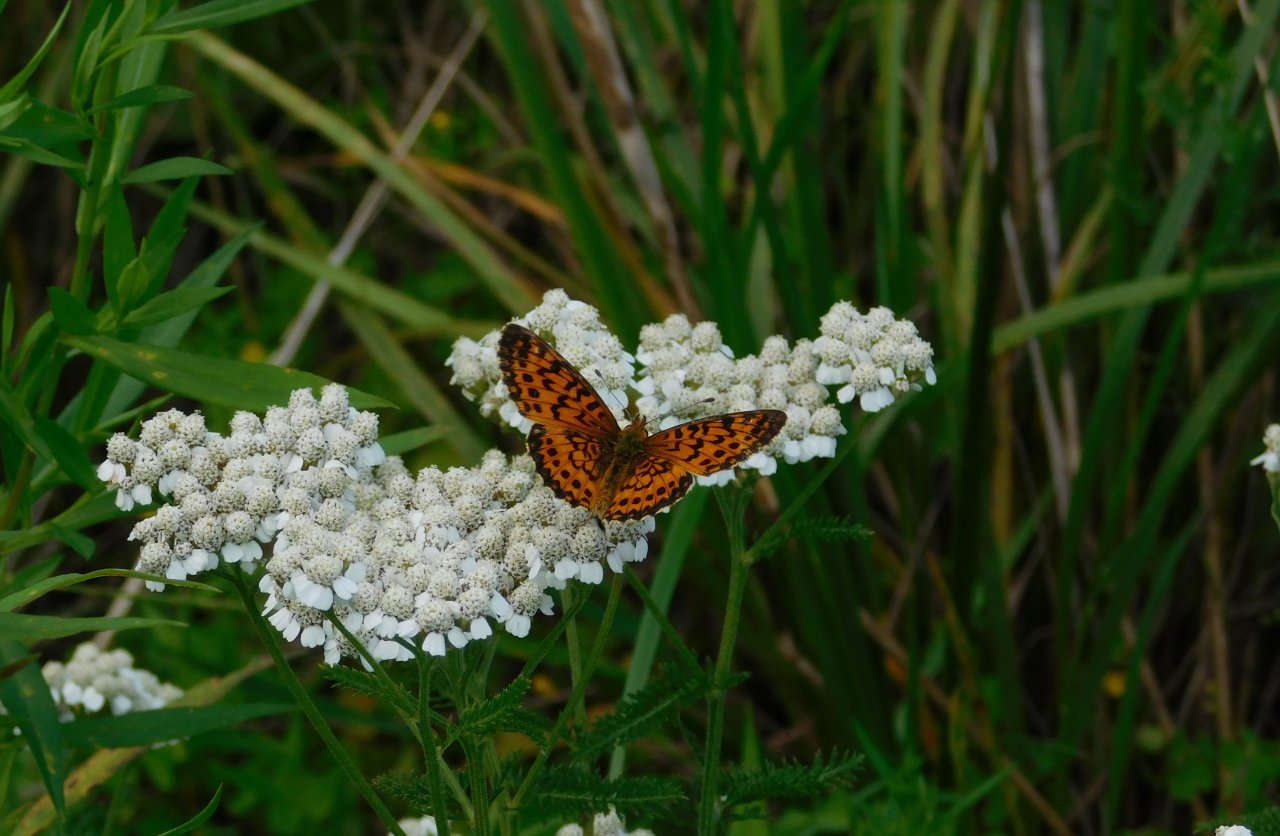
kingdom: Animalia
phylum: Arthropoda
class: Insecta
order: Lepidoptera
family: Nymphalidae
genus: Boloria
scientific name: Boloria selene
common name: Silver-bordered Fritillary
